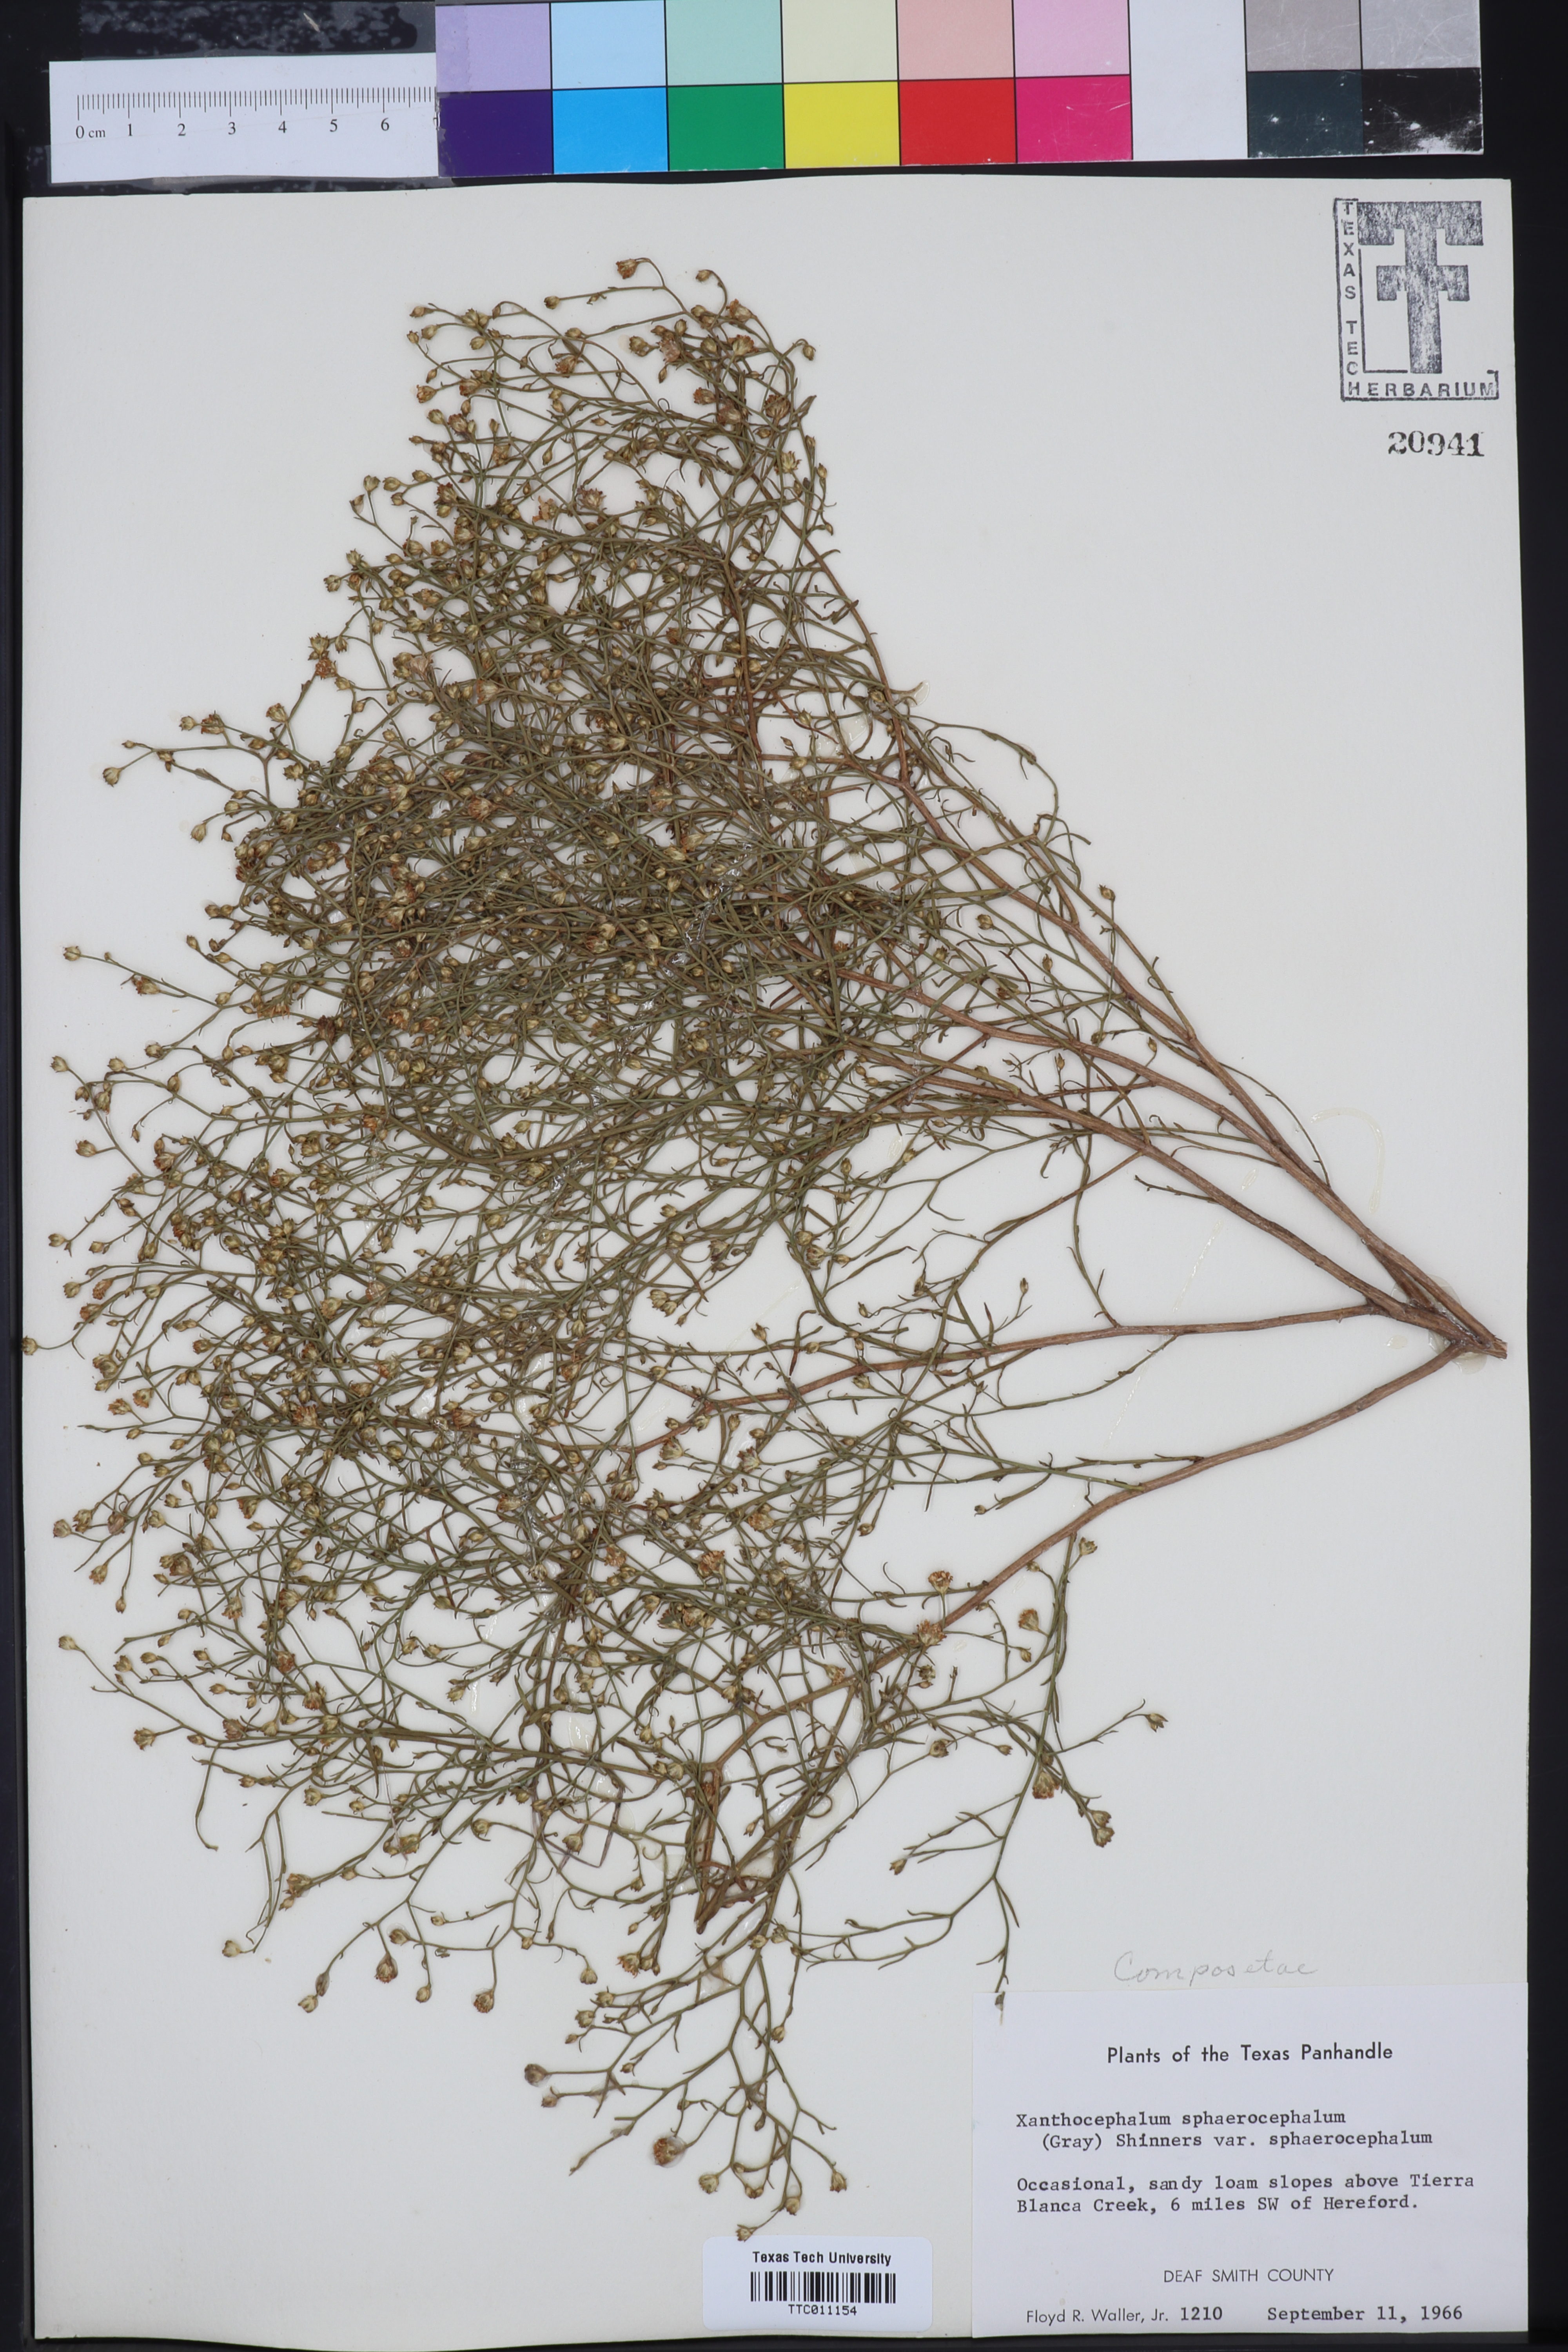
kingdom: Plantae
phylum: Tracheophyta
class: Magnoliopsida
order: Asterales
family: Asteraceae
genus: Gutierrezia
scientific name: Gutierrezia sphaerocephala
